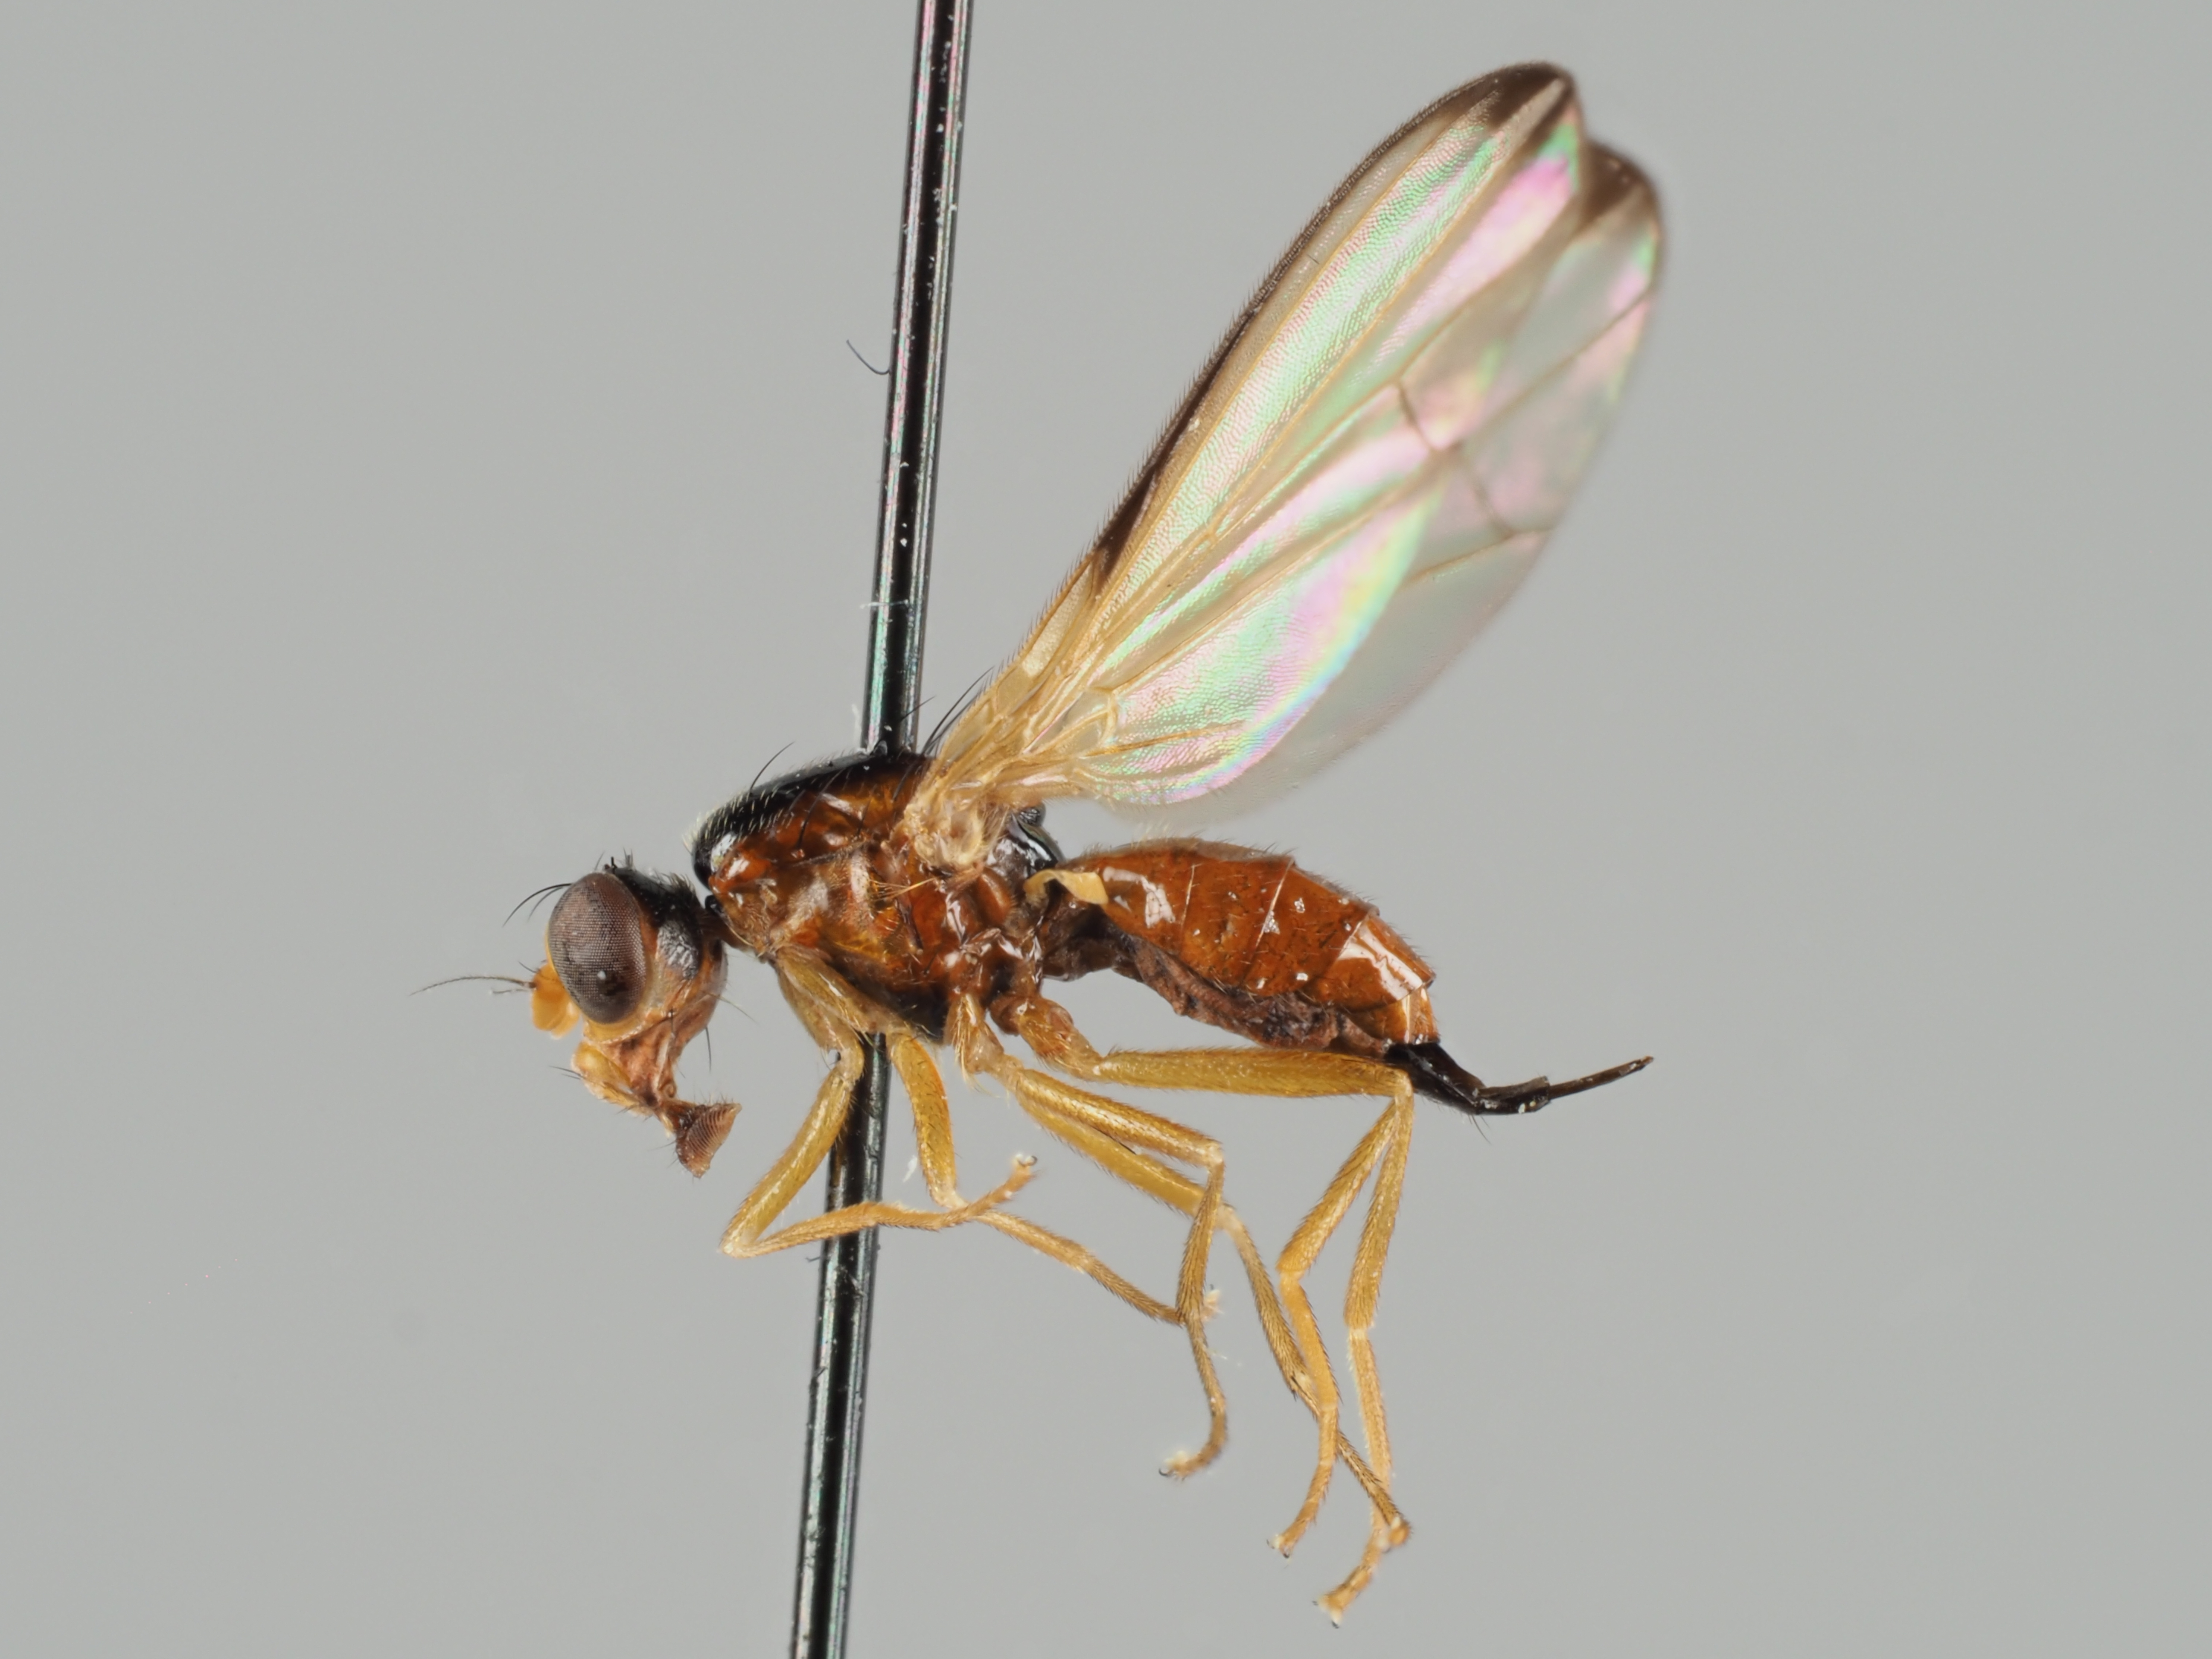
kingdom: Animalia
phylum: Arthropoda
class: Insecta
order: Diptera
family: Pallopteridae
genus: Palloptera
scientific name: Palloptera saltuum
